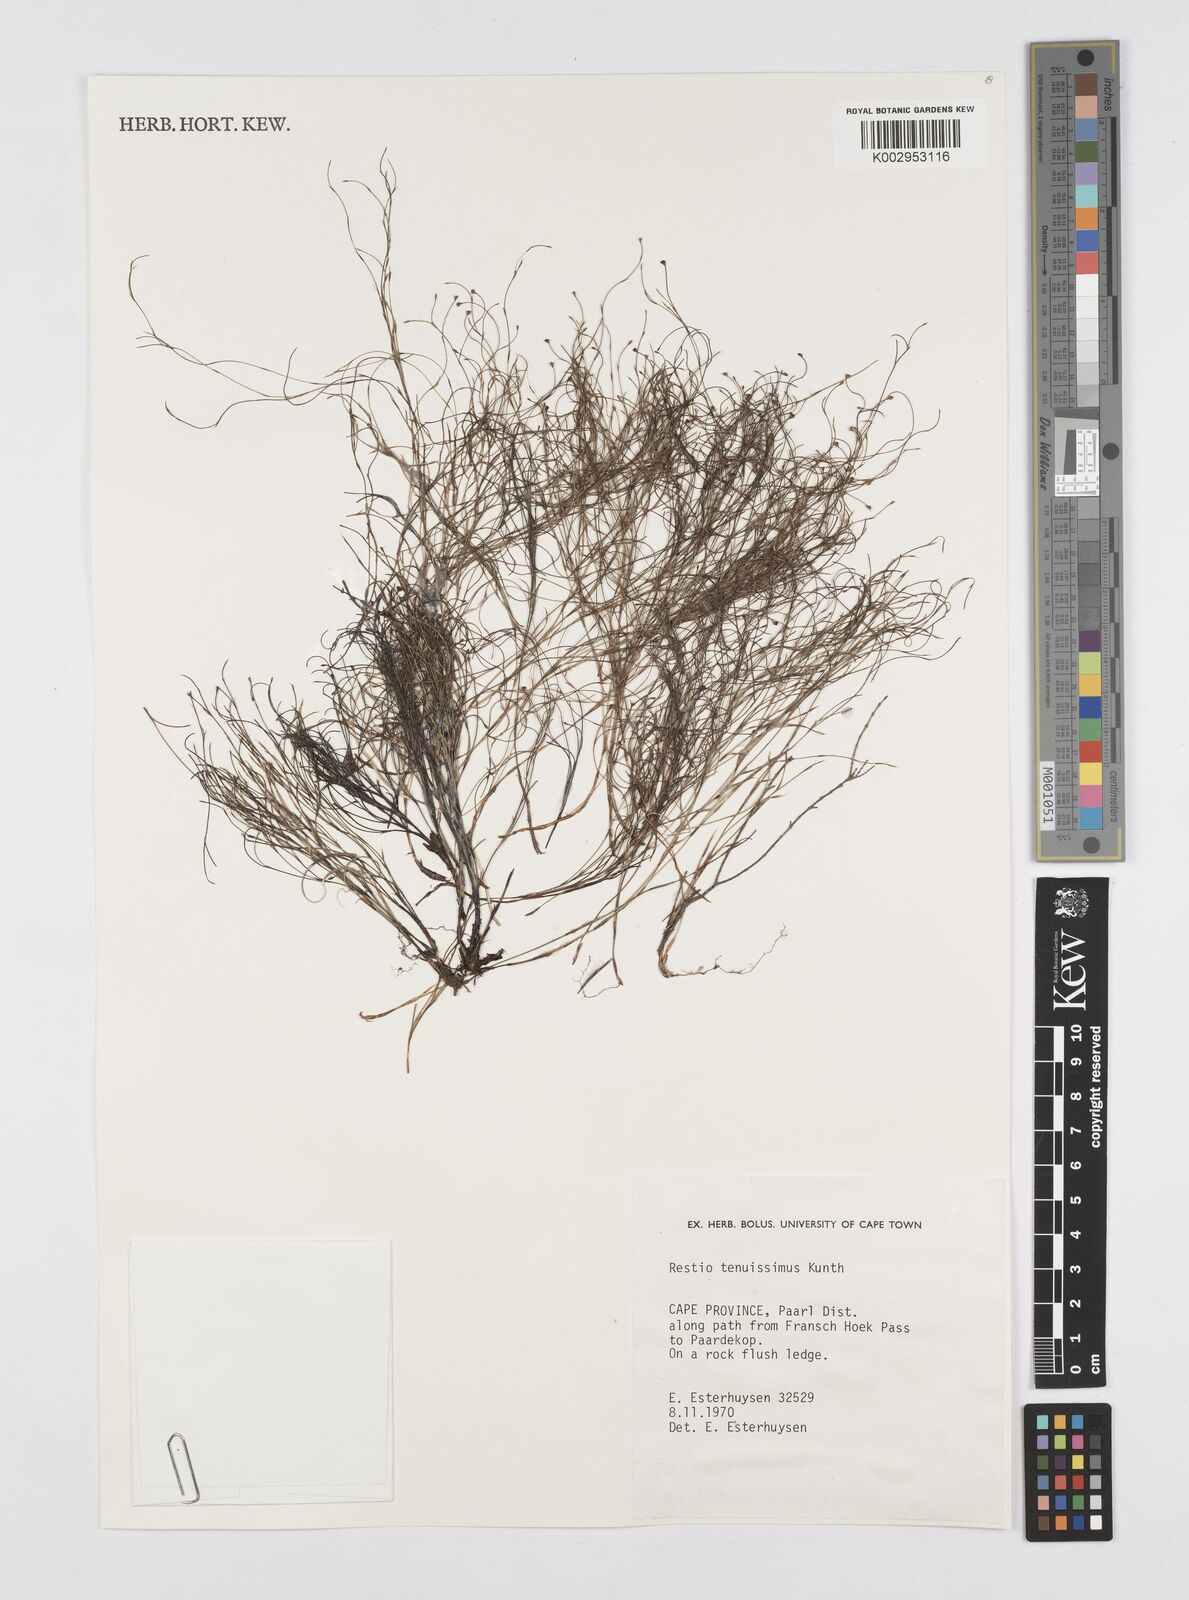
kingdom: Plantae
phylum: Tracheophyta
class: Liliopsida
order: Poales
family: Restionaceae
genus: Restio
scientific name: Restio tenuissimus
